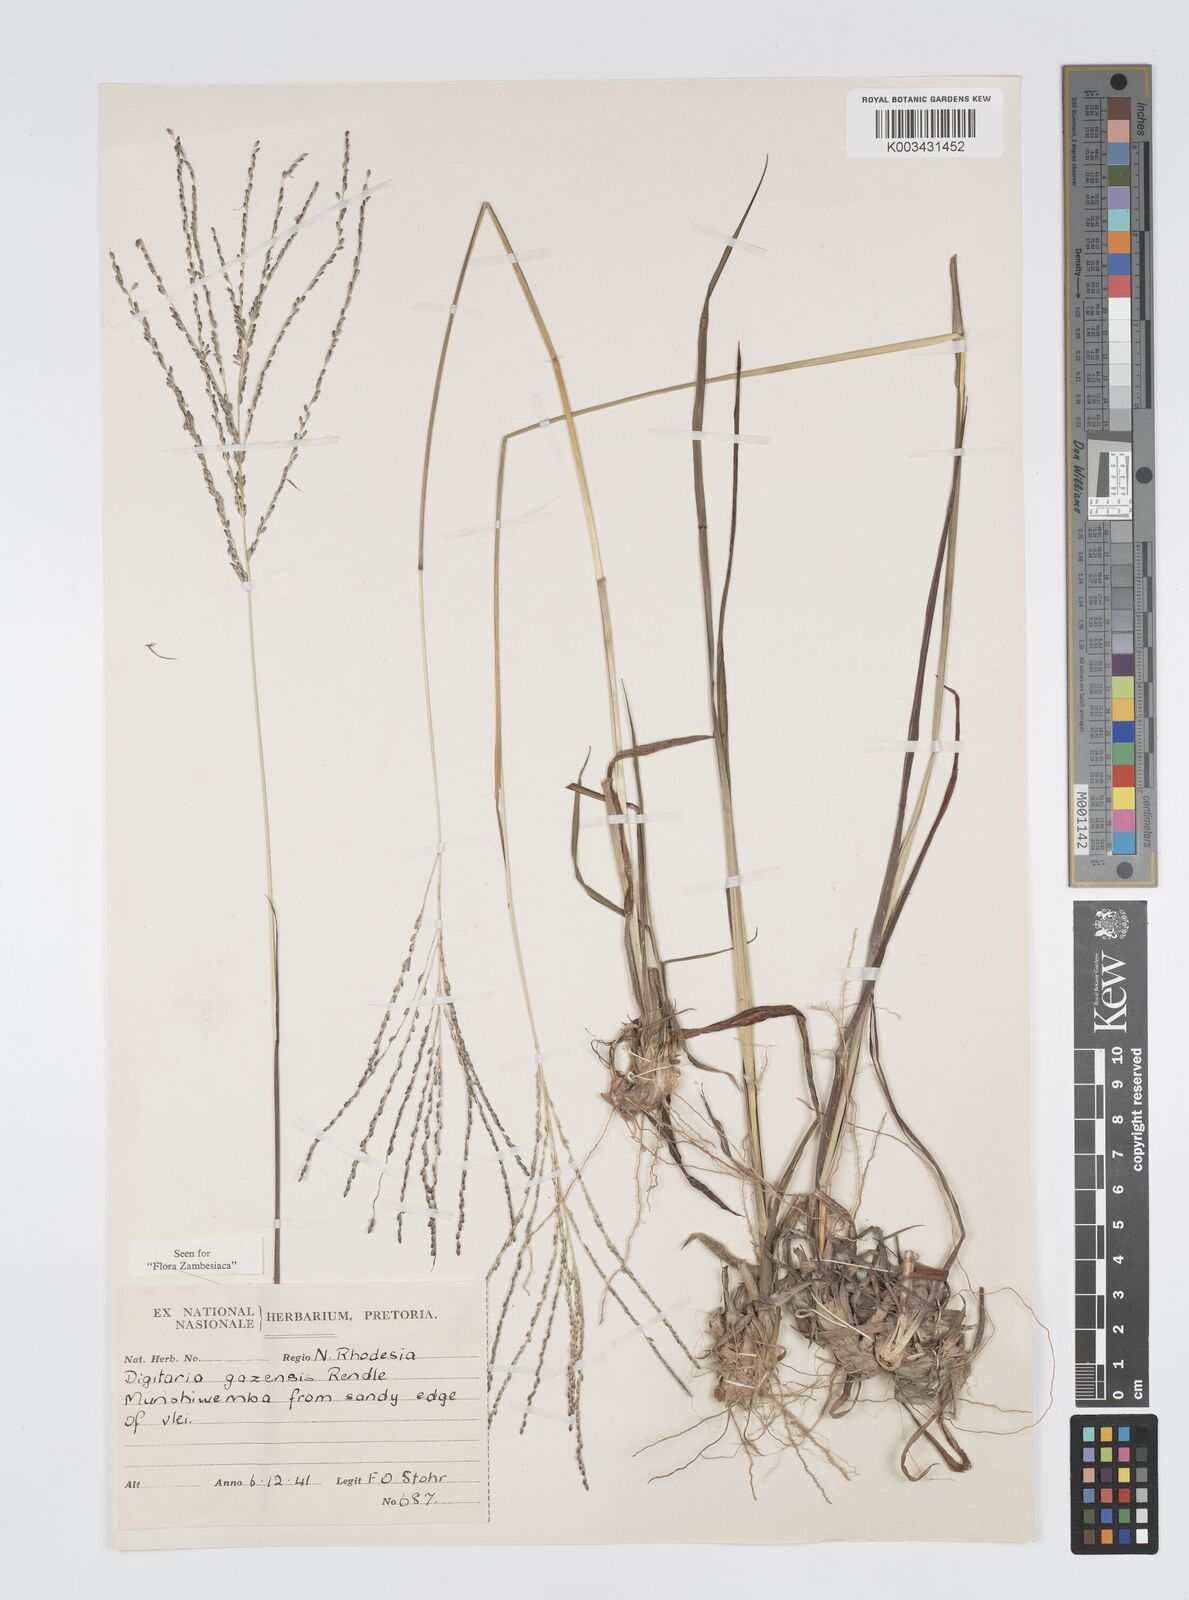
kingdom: Plantae
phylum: Tracheophyta
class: Liliopsida
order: Poales
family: Poaceae
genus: Digitaria
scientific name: Digitaria gazensis
